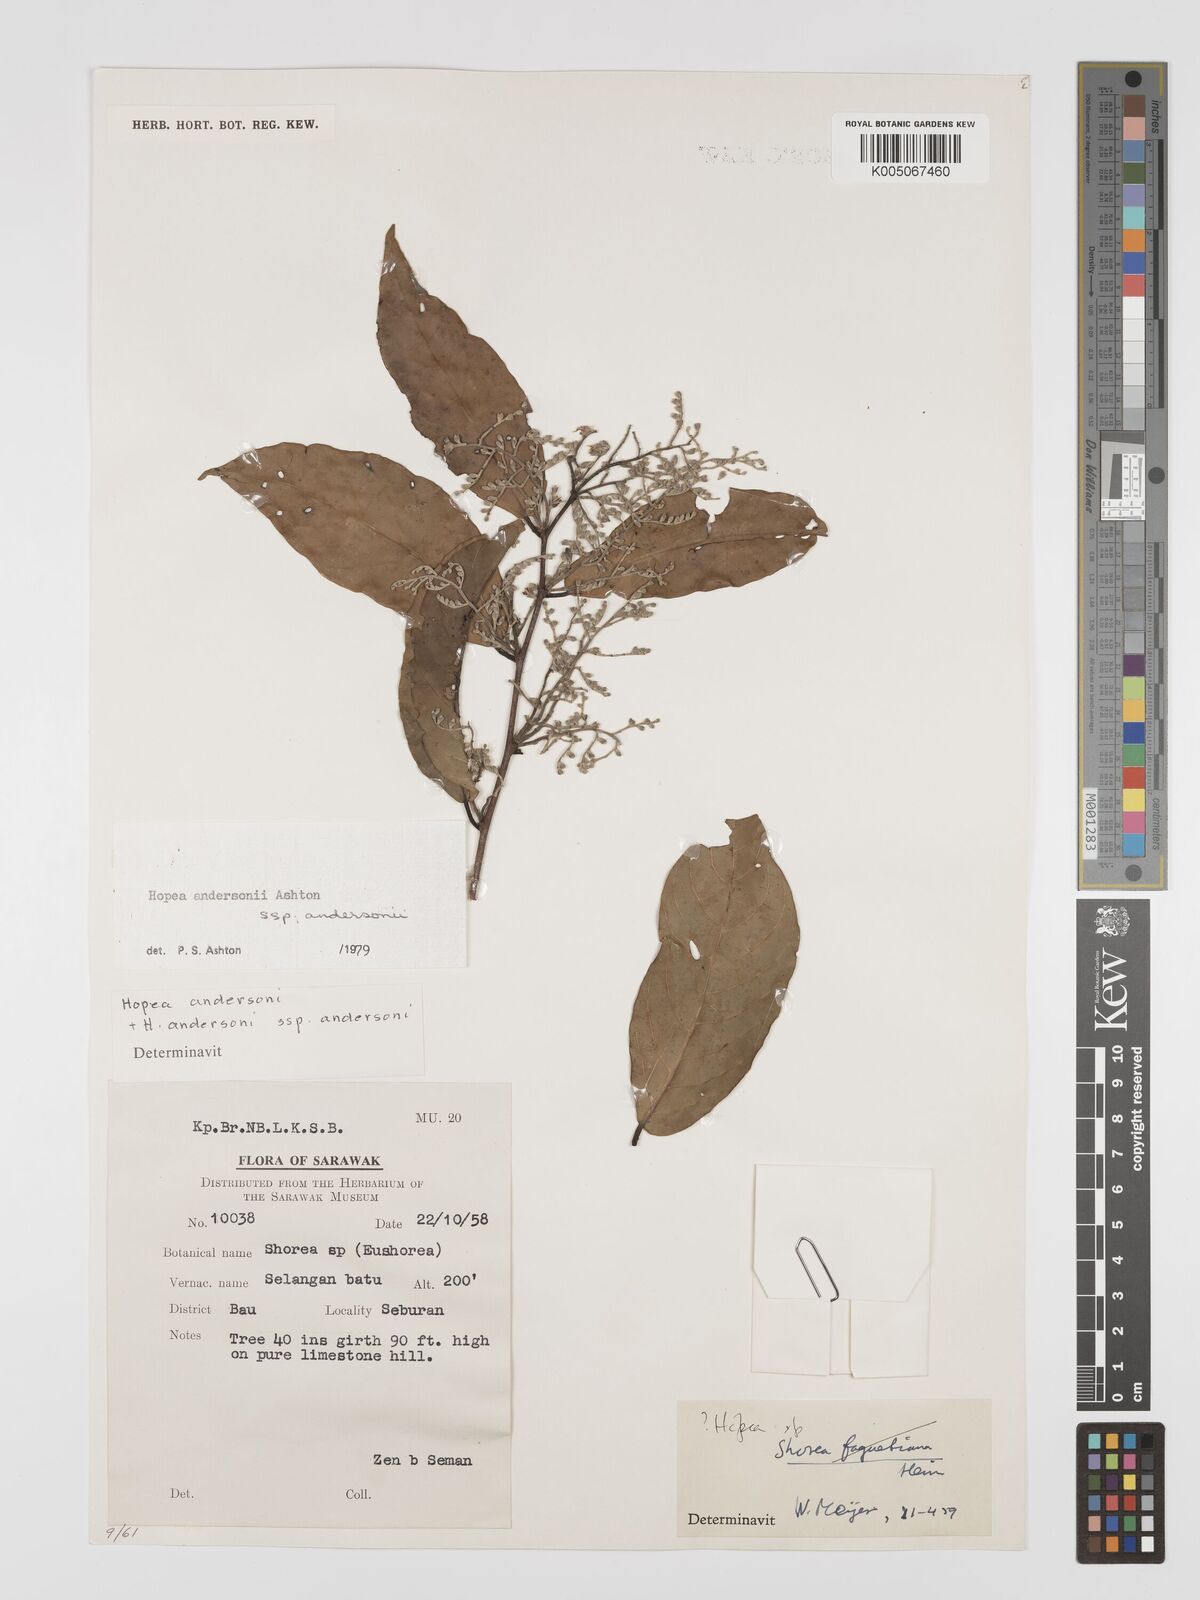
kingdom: Plantae
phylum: Tracheophyta
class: Magnoliopsida
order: Malvales
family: Dipterocarpaceae
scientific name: Dipterocarpaceae
